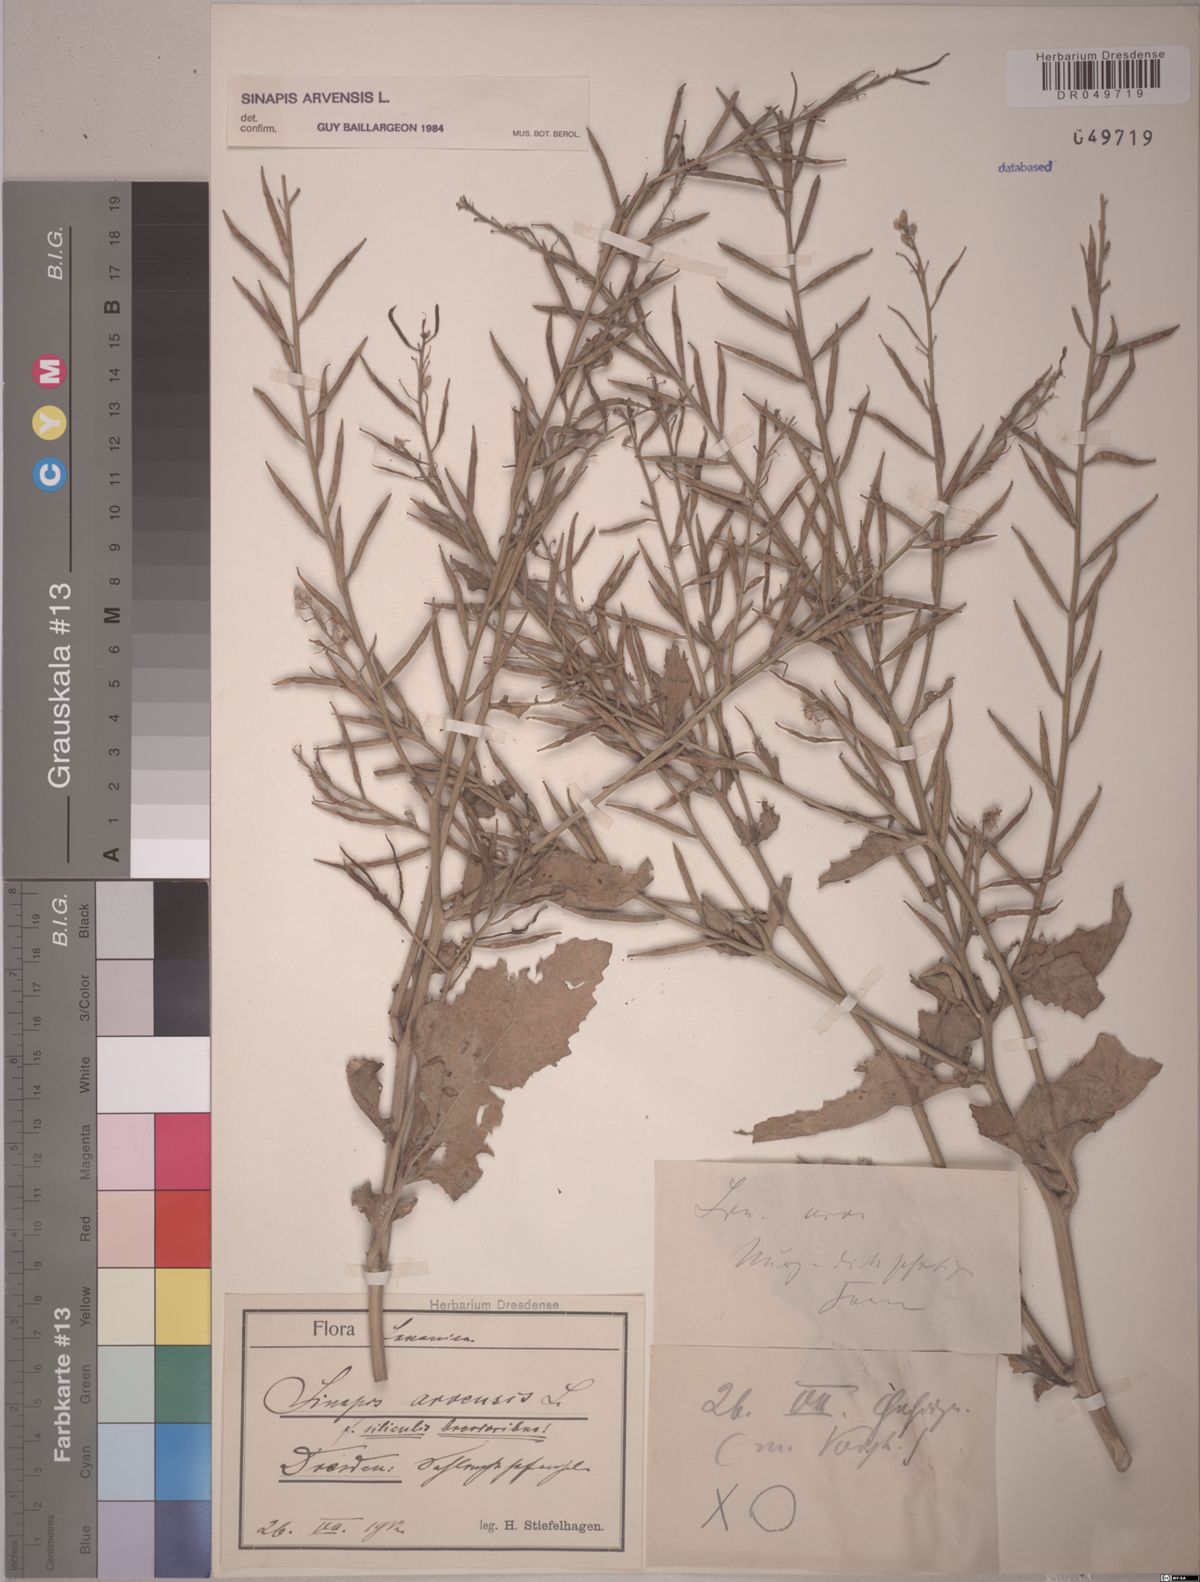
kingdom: Plantae
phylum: Tracheophyta
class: Magnoliopsida
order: Brassicales
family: Brassicaceae
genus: Sinapis
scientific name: Sinapis arvensis
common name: Charlock
